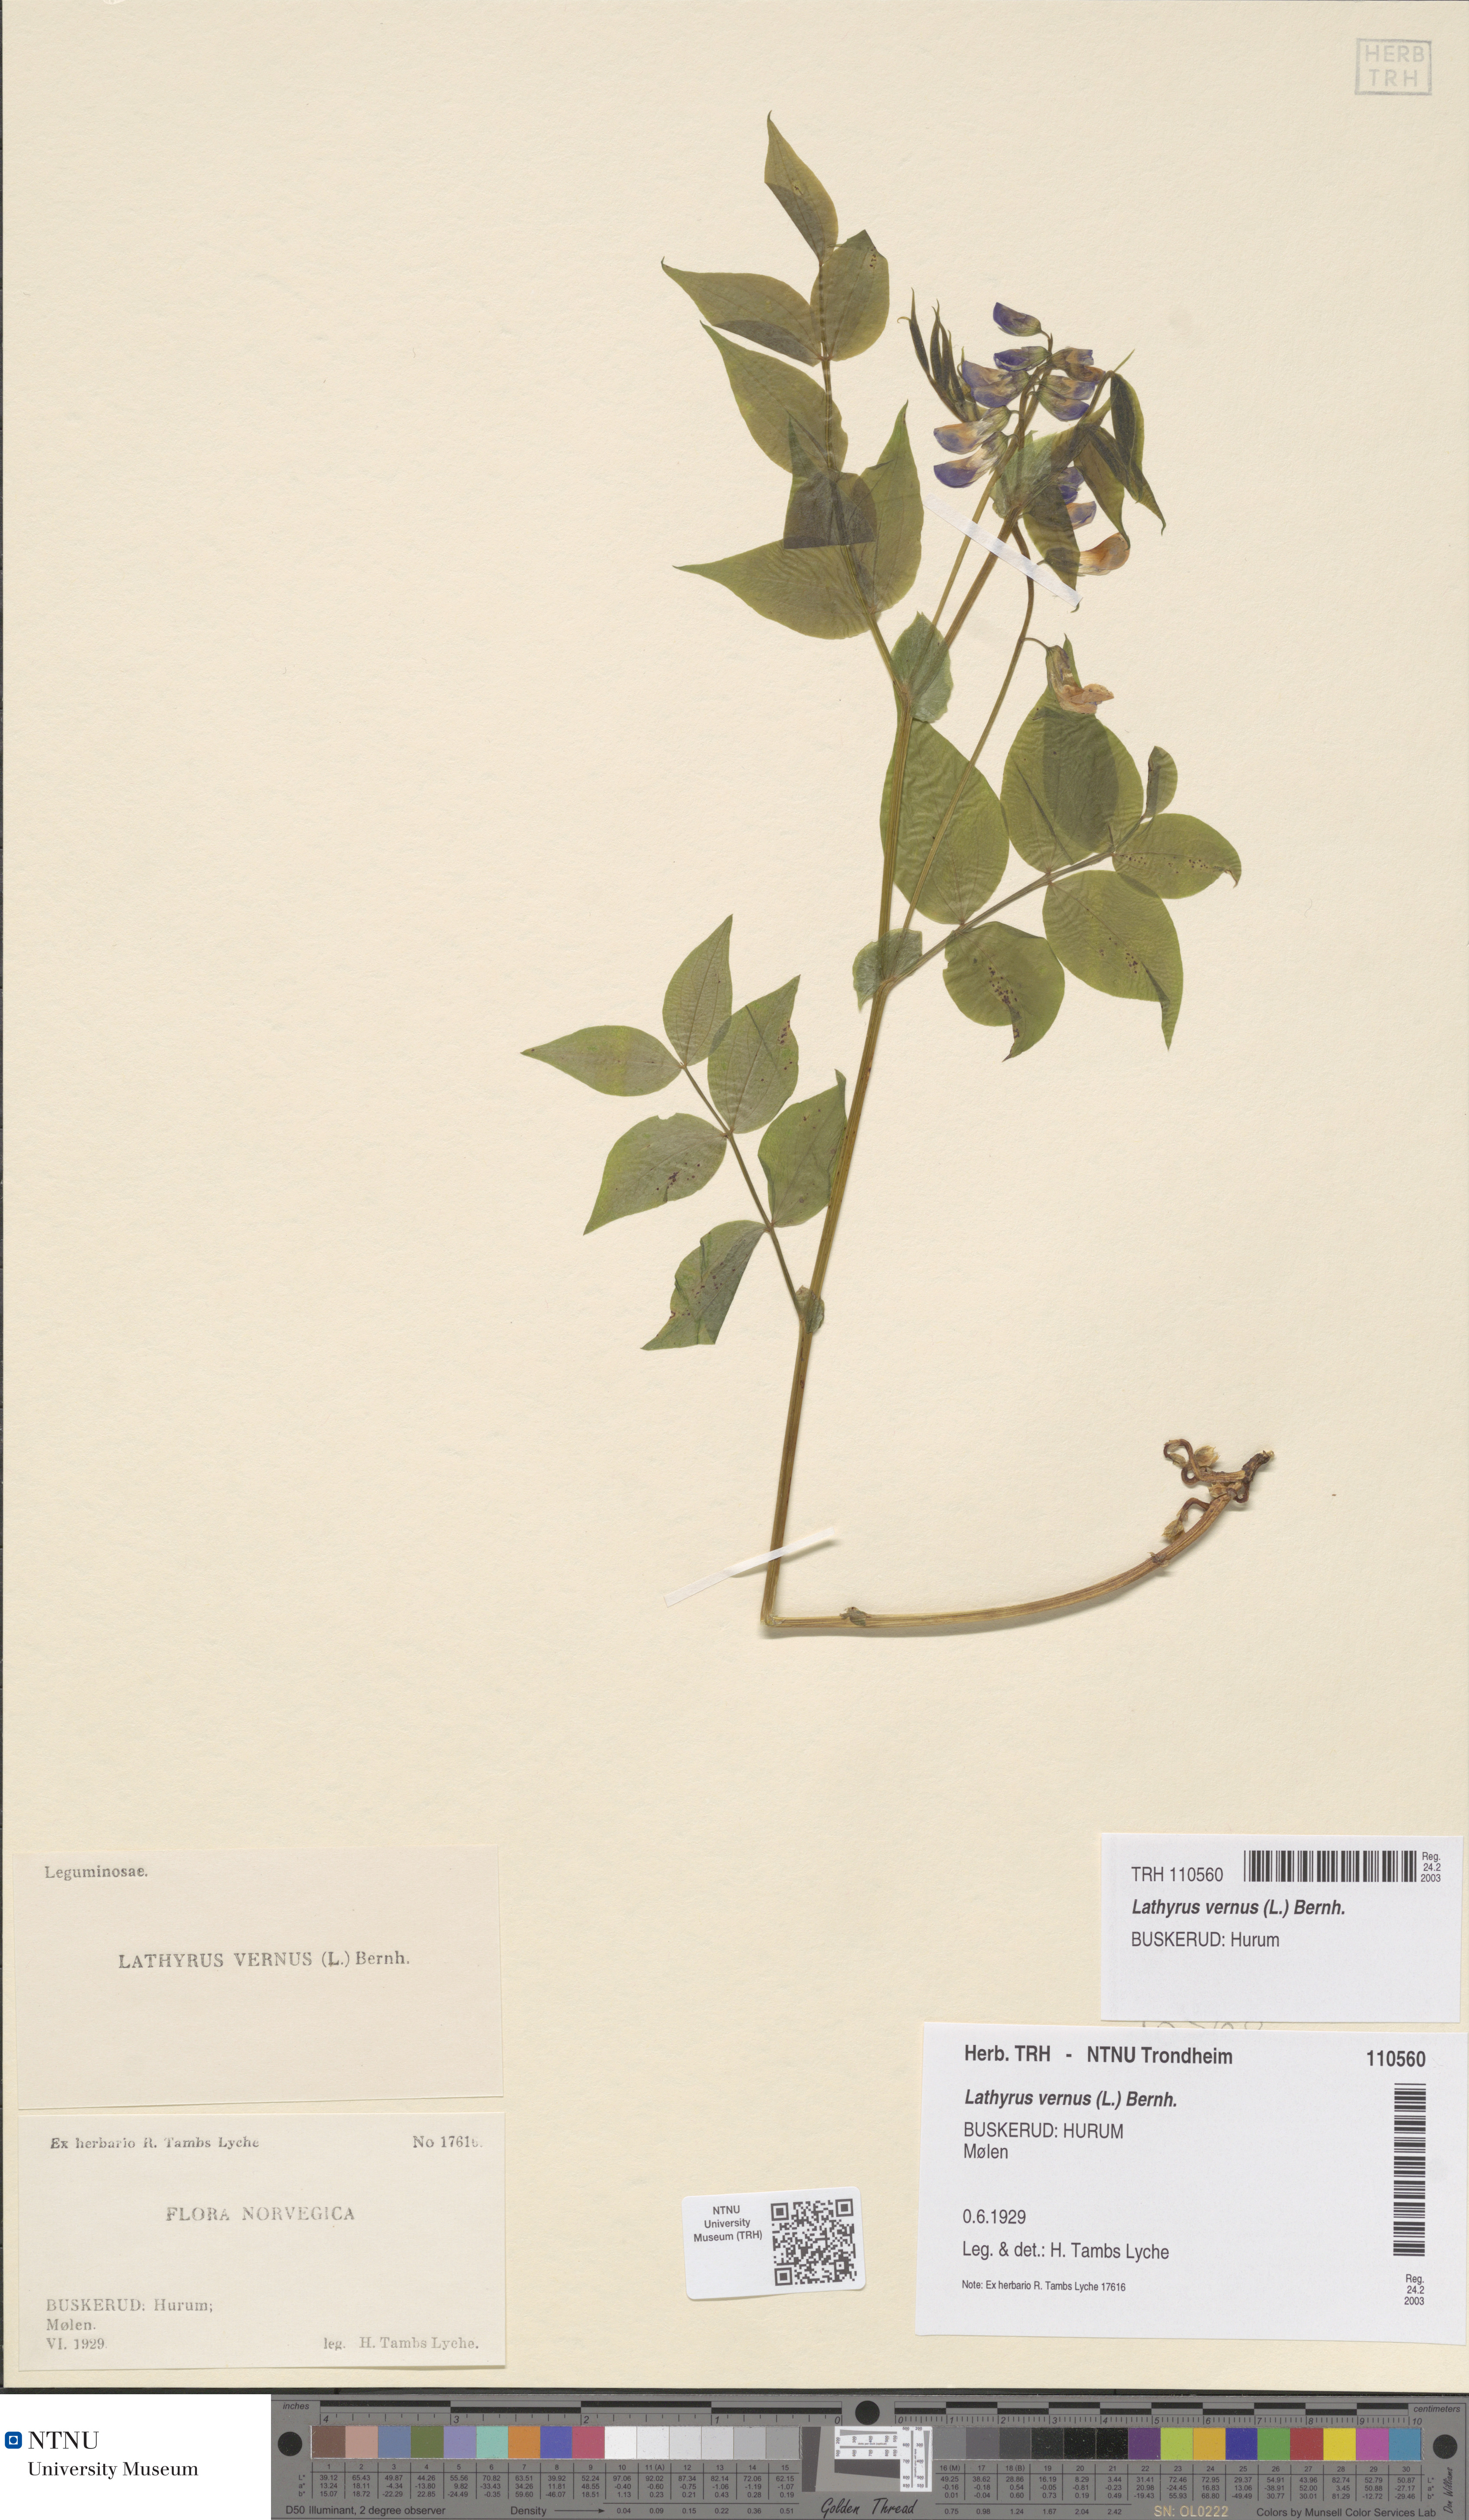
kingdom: Plantae
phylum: Tracheophyta
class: Magnoliopsida
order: Fabales
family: Fabaceae
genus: Lathyrus
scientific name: Lathyrus vernus
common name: Spring pea
